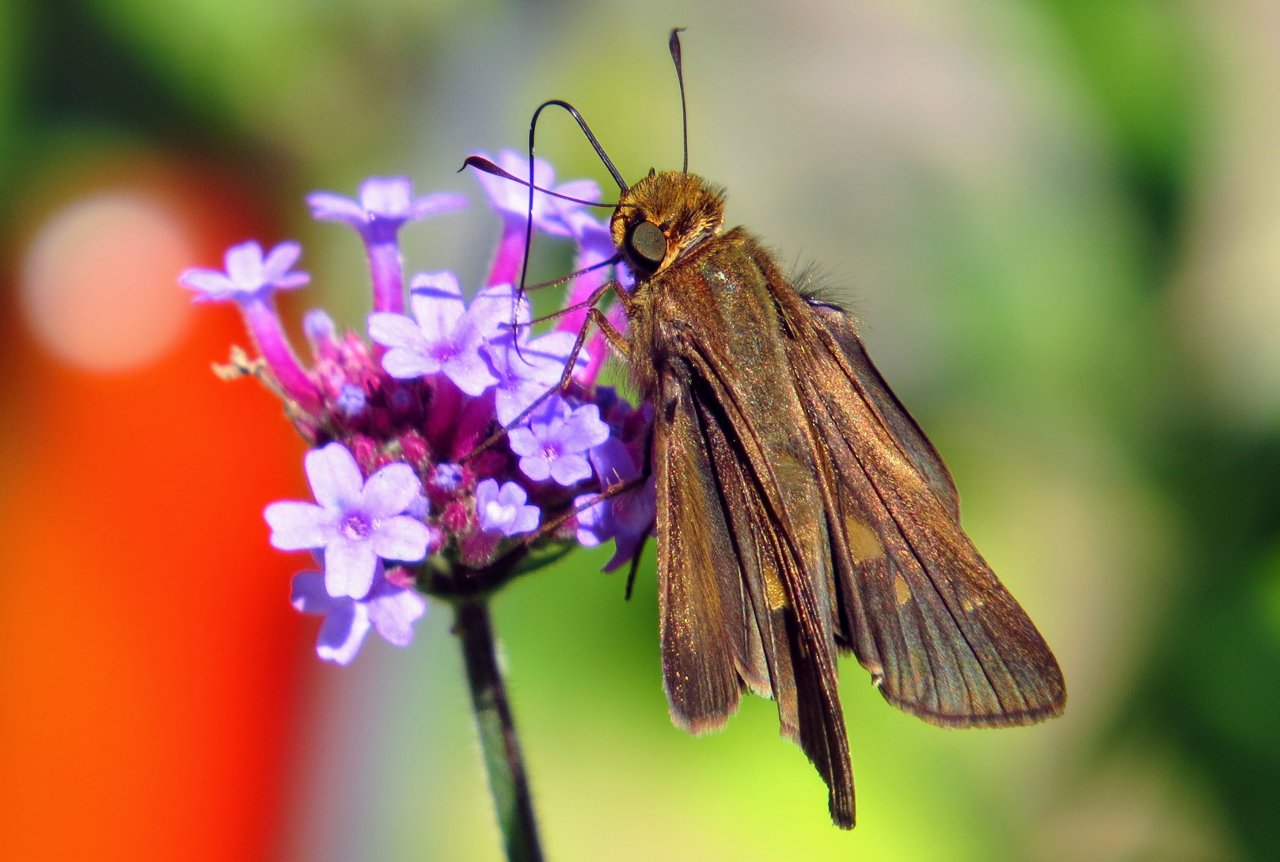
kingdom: Animalia
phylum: Arthropoda
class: Insecta
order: Lepidoptera
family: Hesperiidae
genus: Panoquina
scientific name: Panoquina ocola
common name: Ocola Skipper
